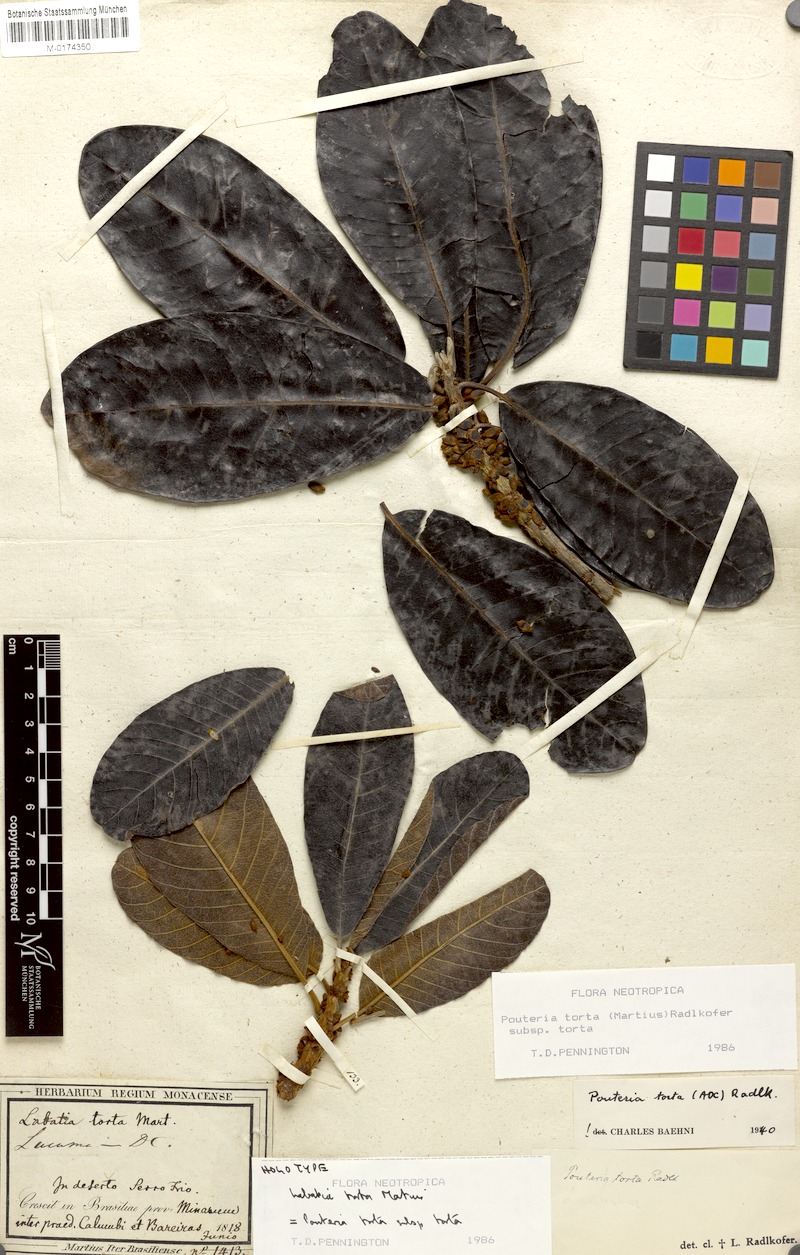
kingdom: Plantae
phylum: Tracheophyta
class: Magnoliopsida
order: Ericales
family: Sapotaceae
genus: Pouteria
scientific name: Pouteria torta
